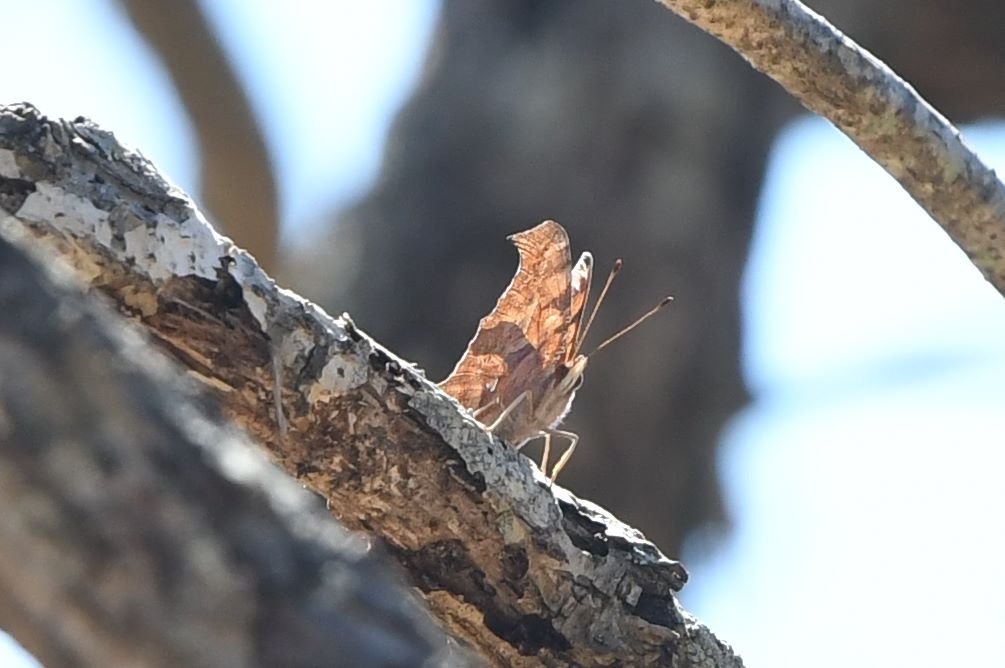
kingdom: Animalia
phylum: Arthropoda
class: Insecta
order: Lepidoptera
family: Nymphalidae
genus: Polygonia
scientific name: Polygonia interrogationis
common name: Question Mark
